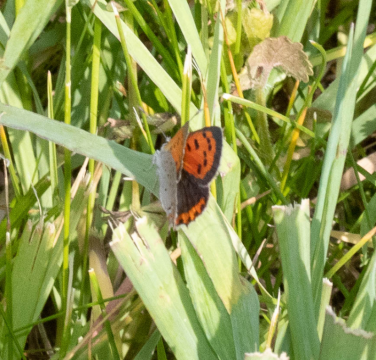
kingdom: Animalia
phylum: Arthropoda
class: Insecta
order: Lepidoptera
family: Lycaenidae
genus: Lycaena
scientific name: Lycaena phlaeas
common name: American Copper
